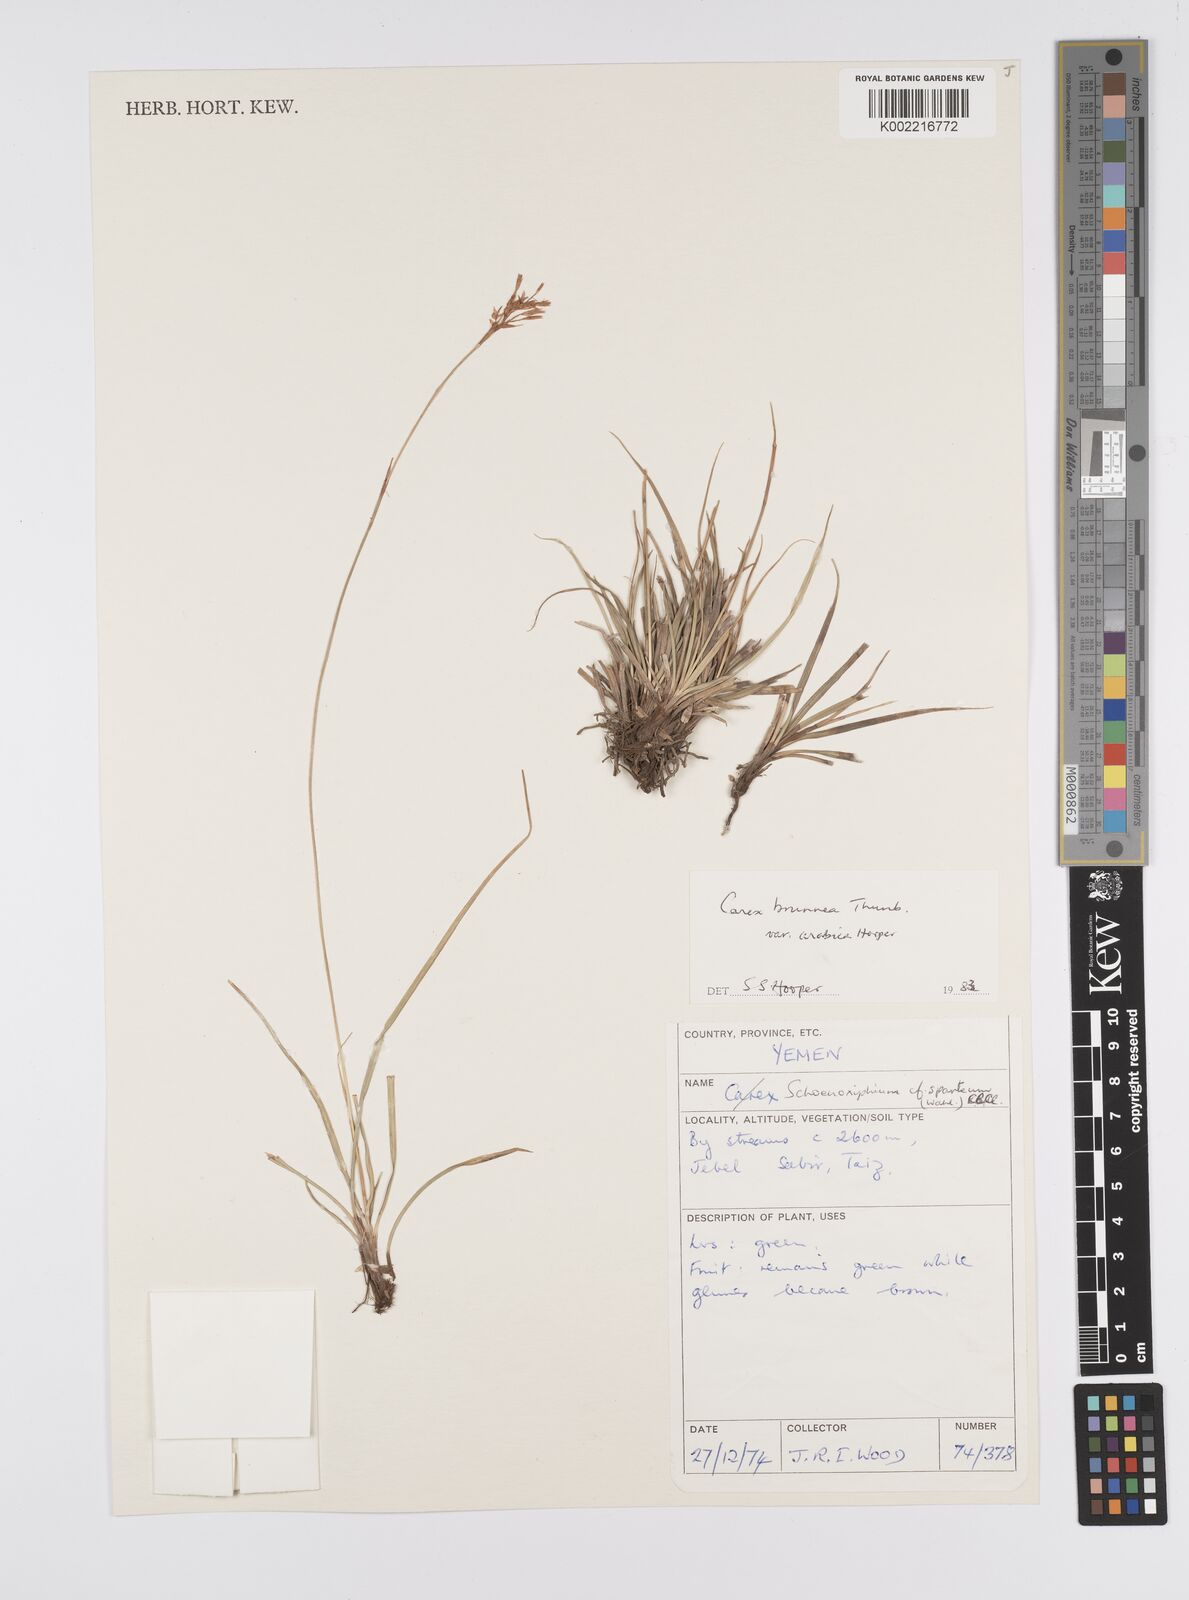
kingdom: Plantae
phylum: Tracheophyta
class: Liliopsida
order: Poales
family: Cyperaceae
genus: Carex
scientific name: Carex brunnea
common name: Greater brown sedge
